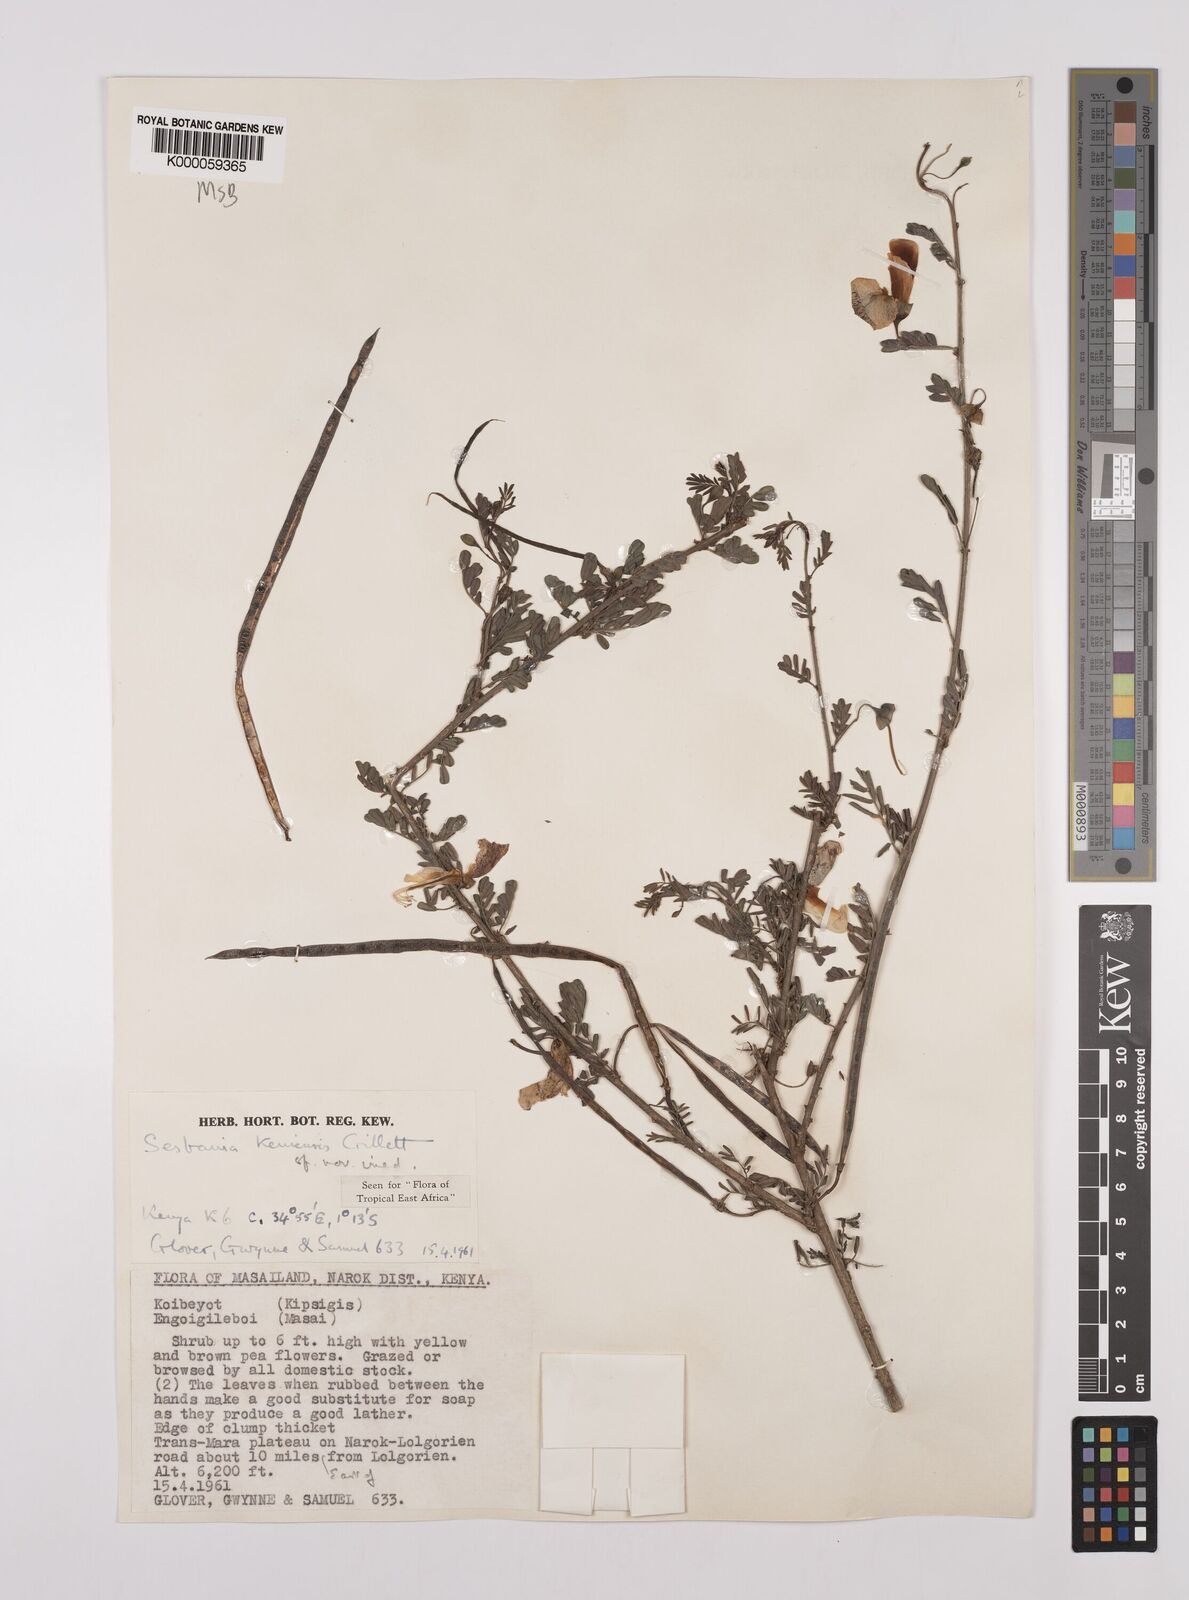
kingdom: Plantae
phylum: Tracheophyta
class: Magnoliopsida
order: Fabales
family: Fabaceae
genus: Sesbania
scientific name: Sesbania keniensis
